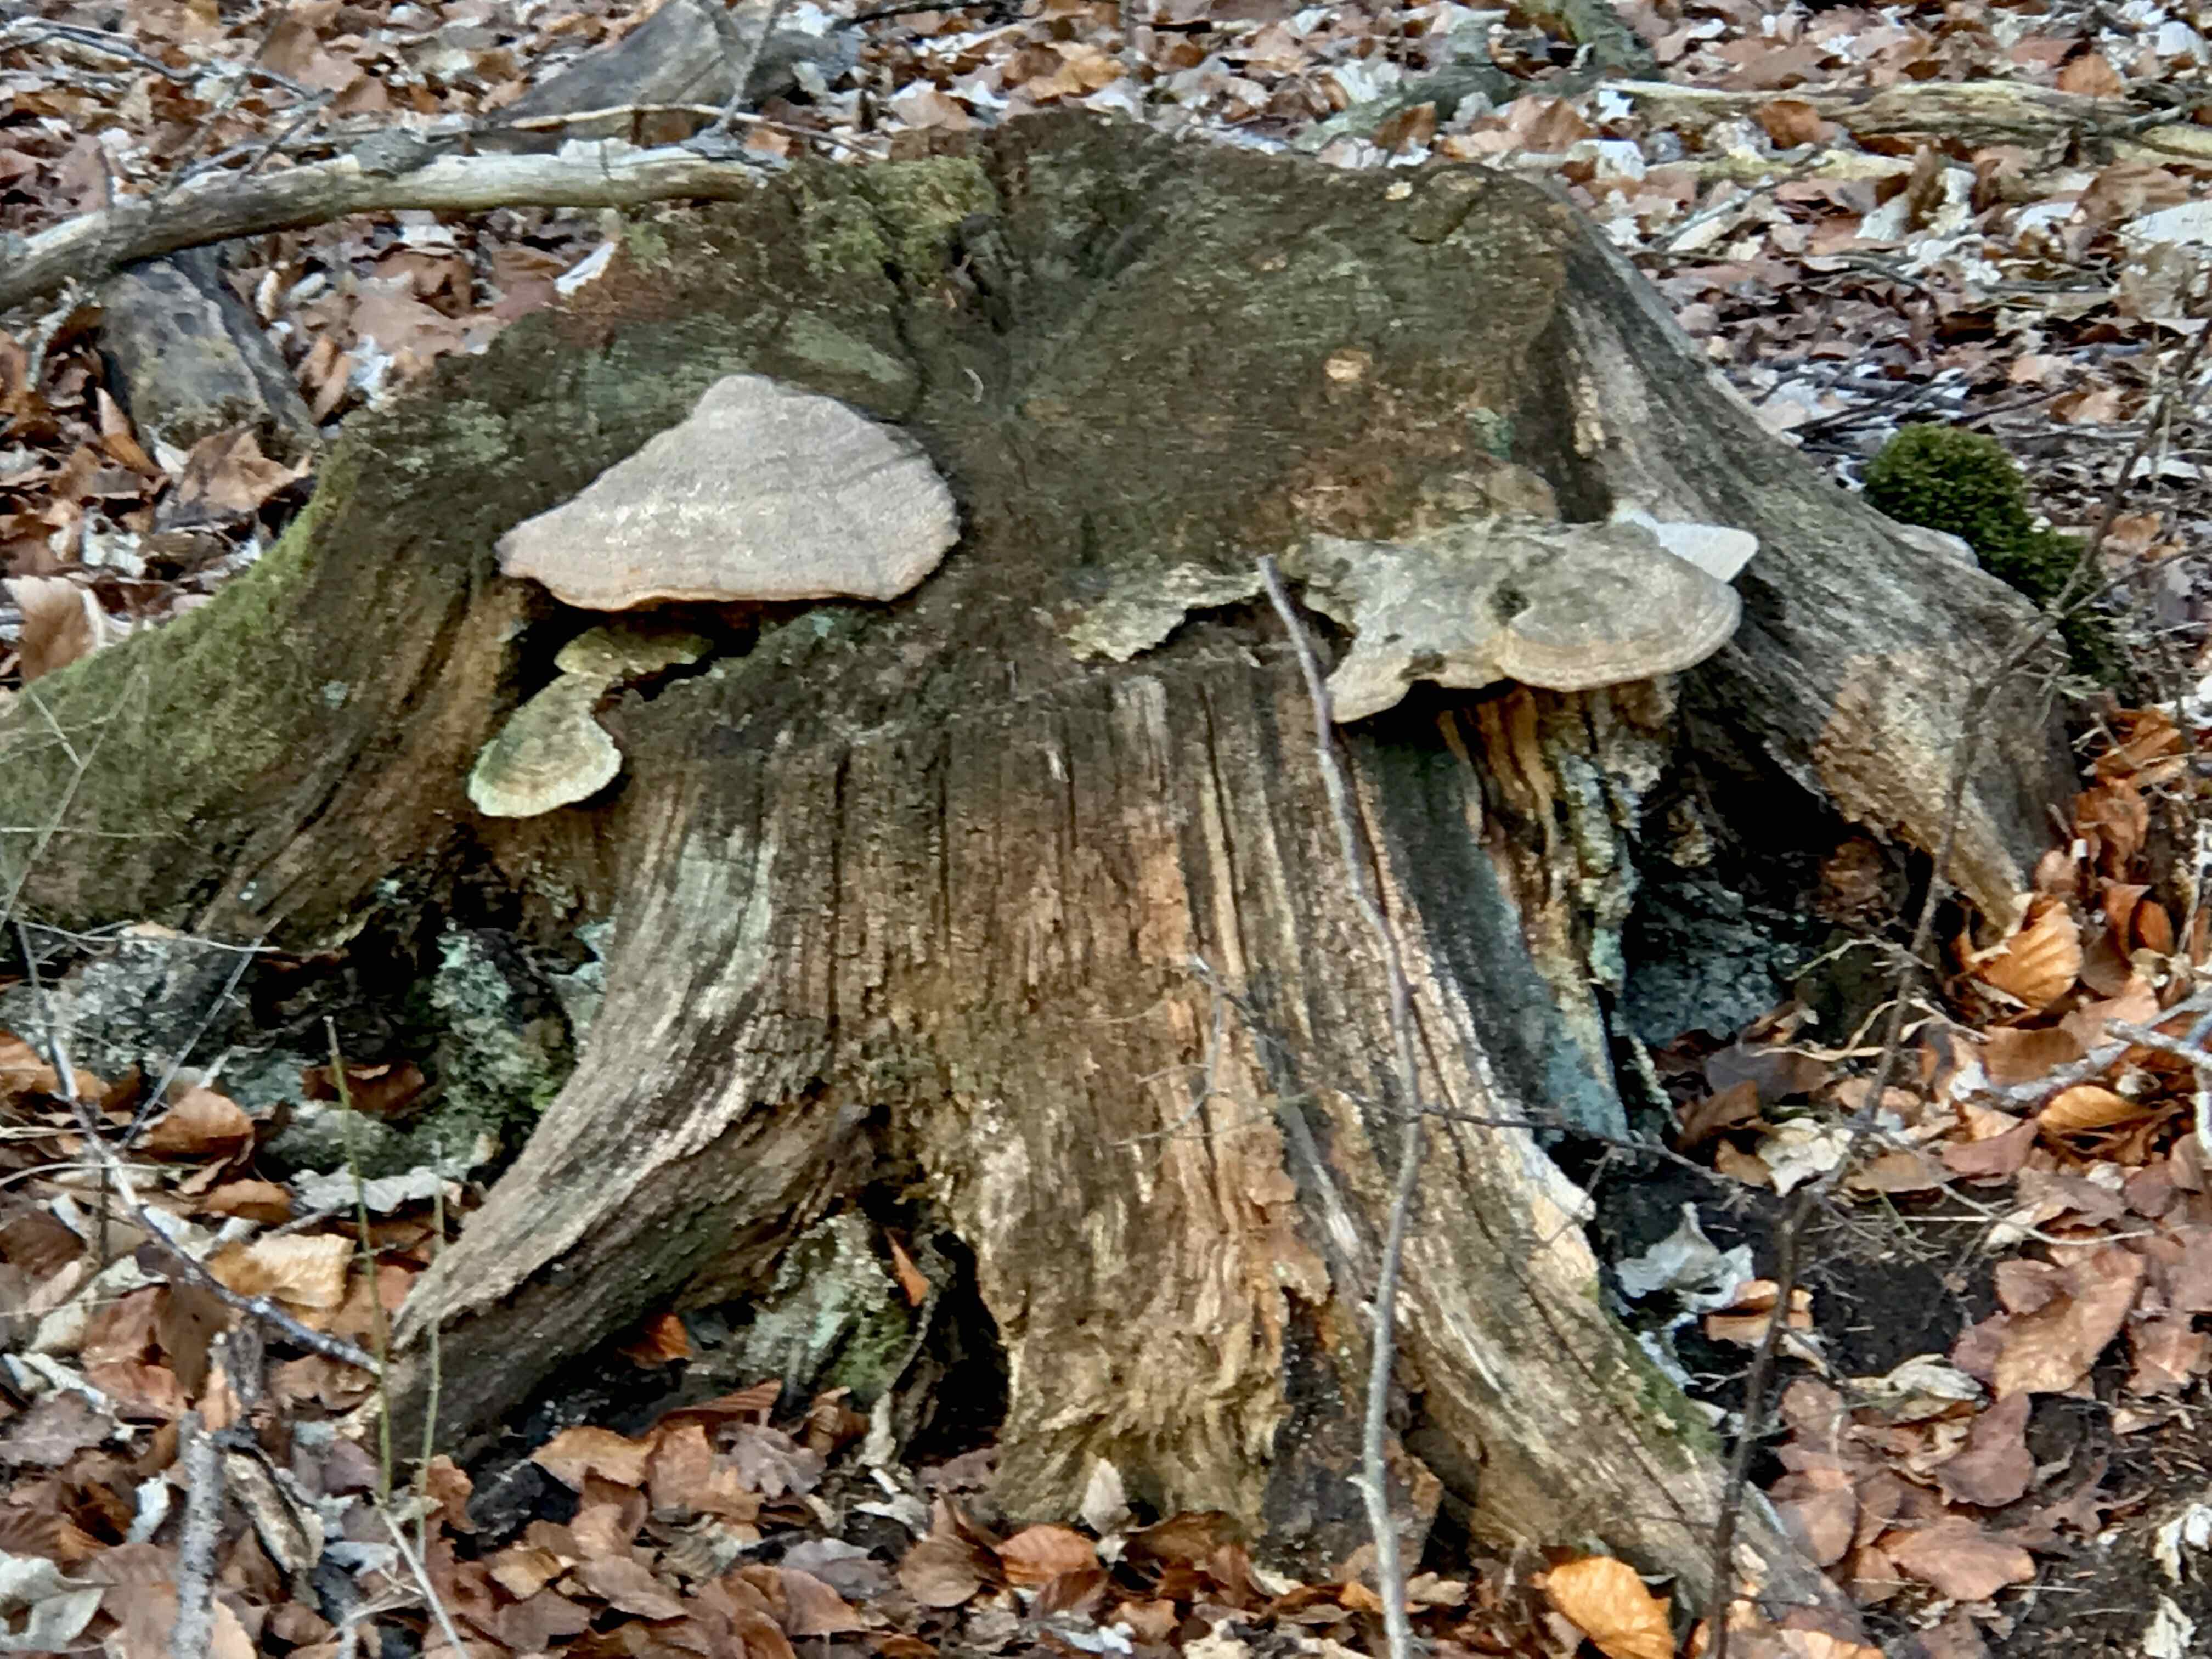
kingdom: Fungi
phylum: Basidiomycota
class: Agaricomycetes
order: Polyporales
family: Fomitopsidaceae
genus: Daedalea
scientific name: Daedalea quercina
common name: ege-labyrintsvamp
